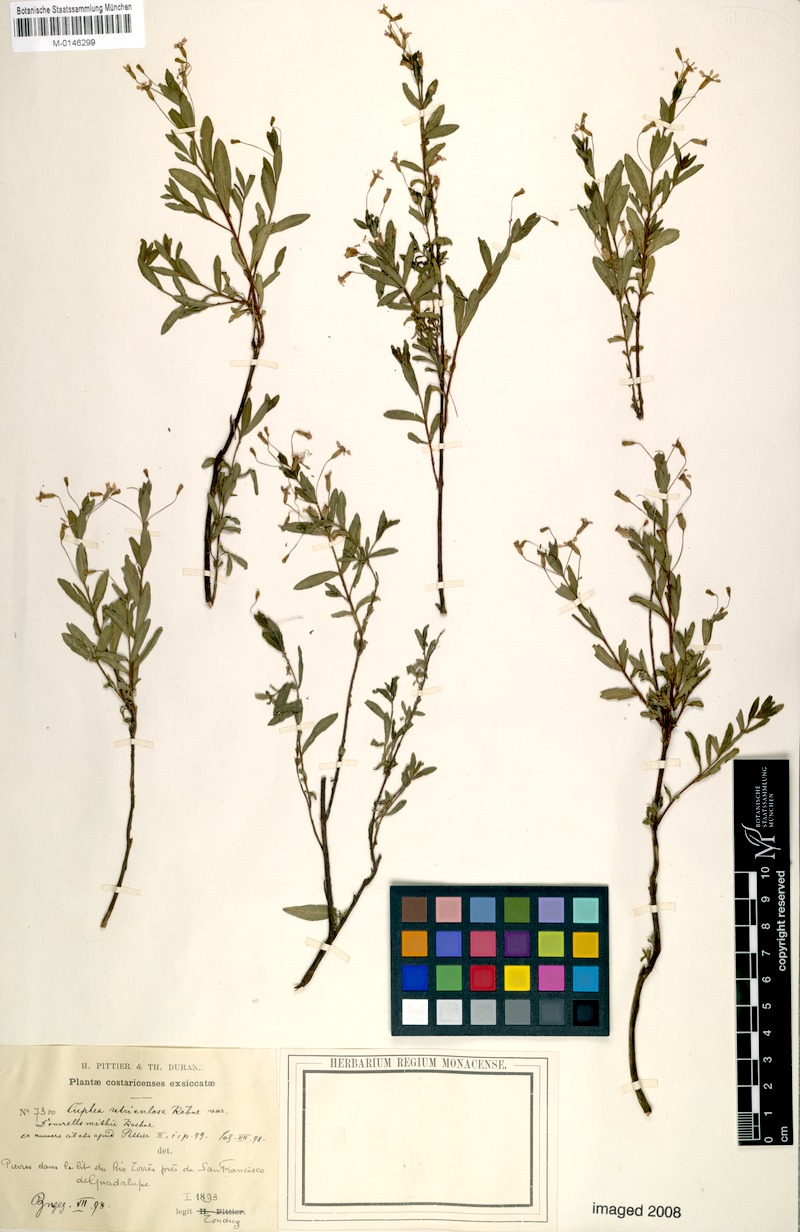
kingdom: Plantae
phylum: Tracheophyta
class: Magnoliopsida
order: Myrtales
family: Lythraceae
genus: Cuphea
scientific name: Cuphea utriculosa
